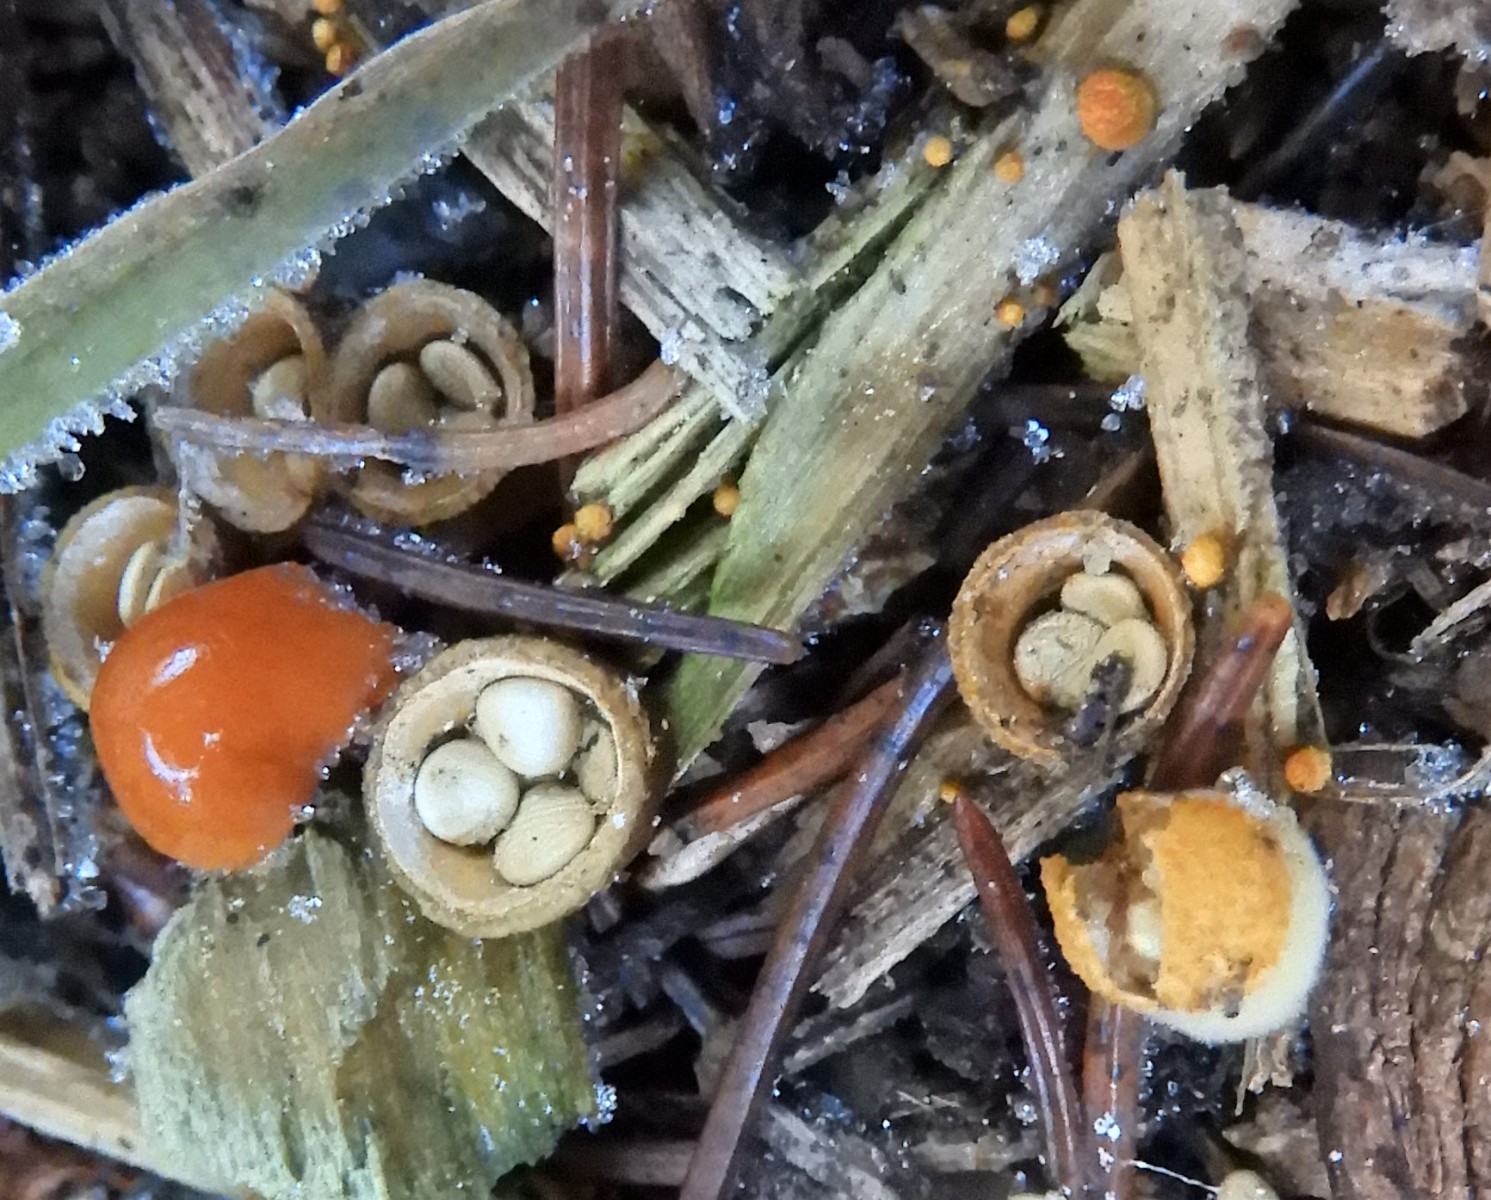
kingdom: Fungi
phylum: Basidiomycota
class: Agaricomycetes
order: Agaricales
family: Nidulariaceae
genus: Crucibulum
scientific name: Crucibulum crucibuliforme
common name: krukkesvamp
